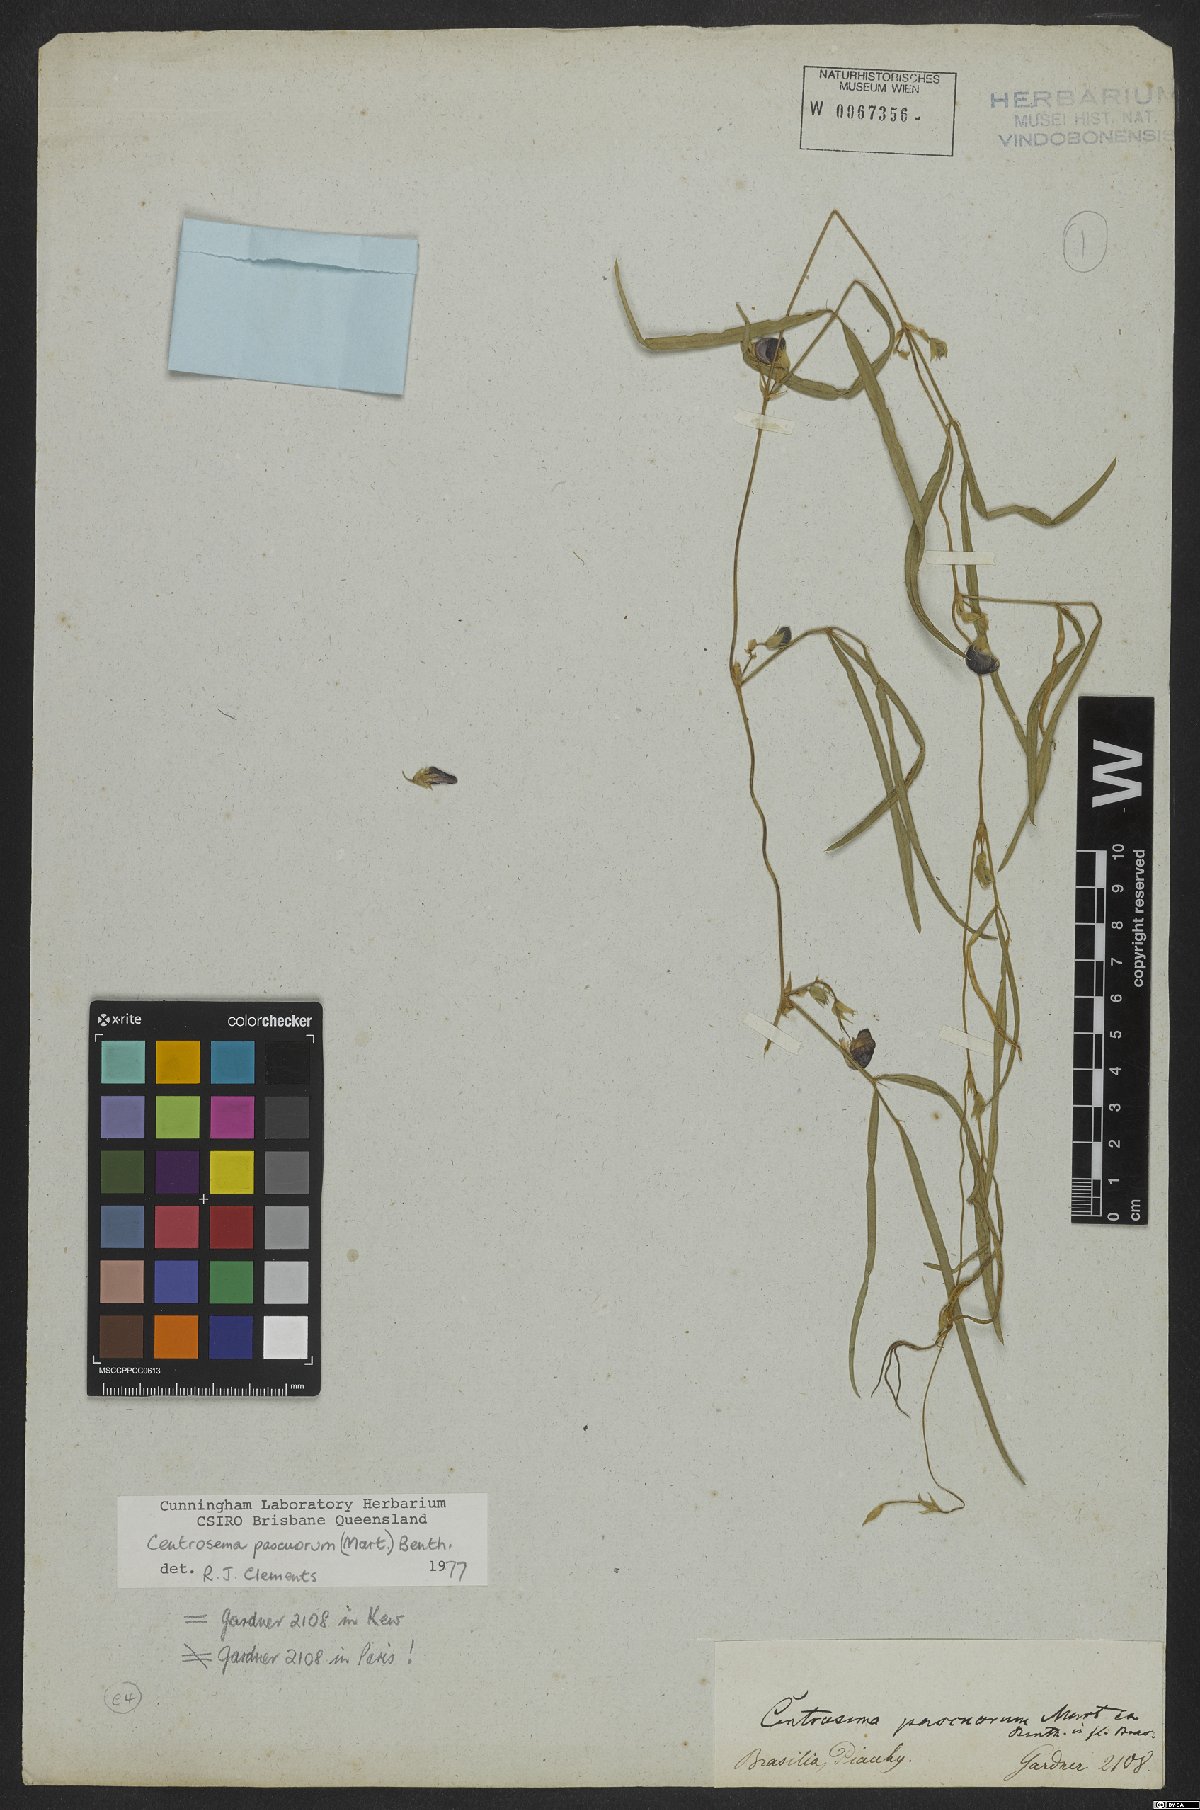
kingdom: Plantae
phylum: Tracheophyta
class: Magnoliopsida
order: Fabales
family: Fabaceae
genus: Centrosema
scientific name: Centrosema pascuorum
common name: Centurion
